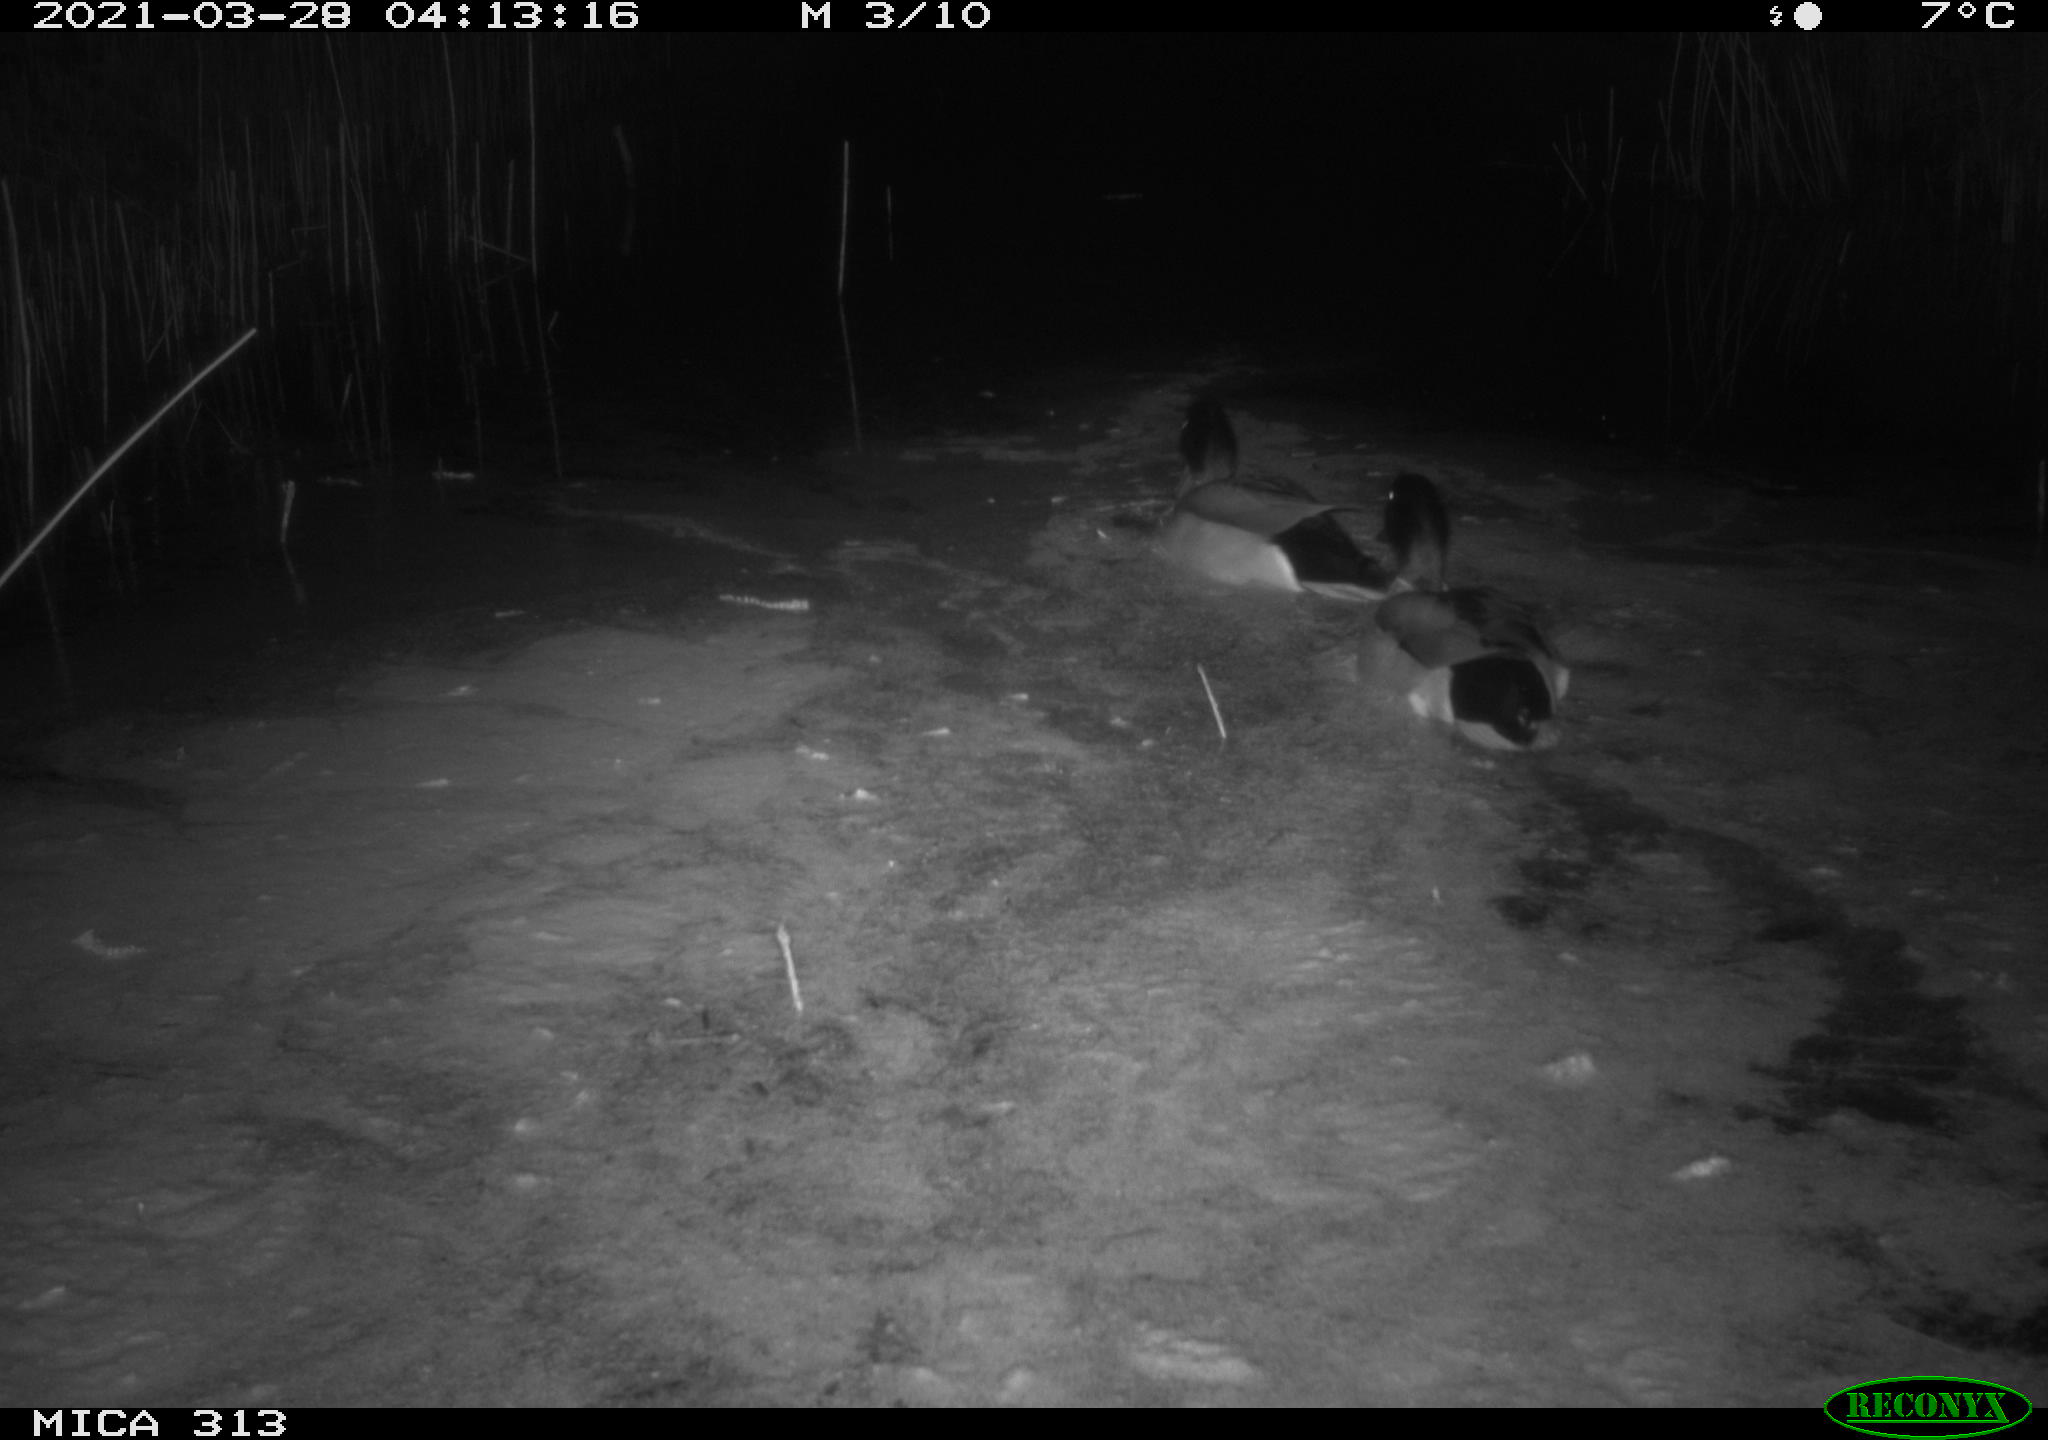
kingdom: Animalia
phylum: Chordata
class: Aves
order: Anseriformes
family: Anatidae
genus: Anas
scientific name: Anas platyrhynchos
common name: Mallard
